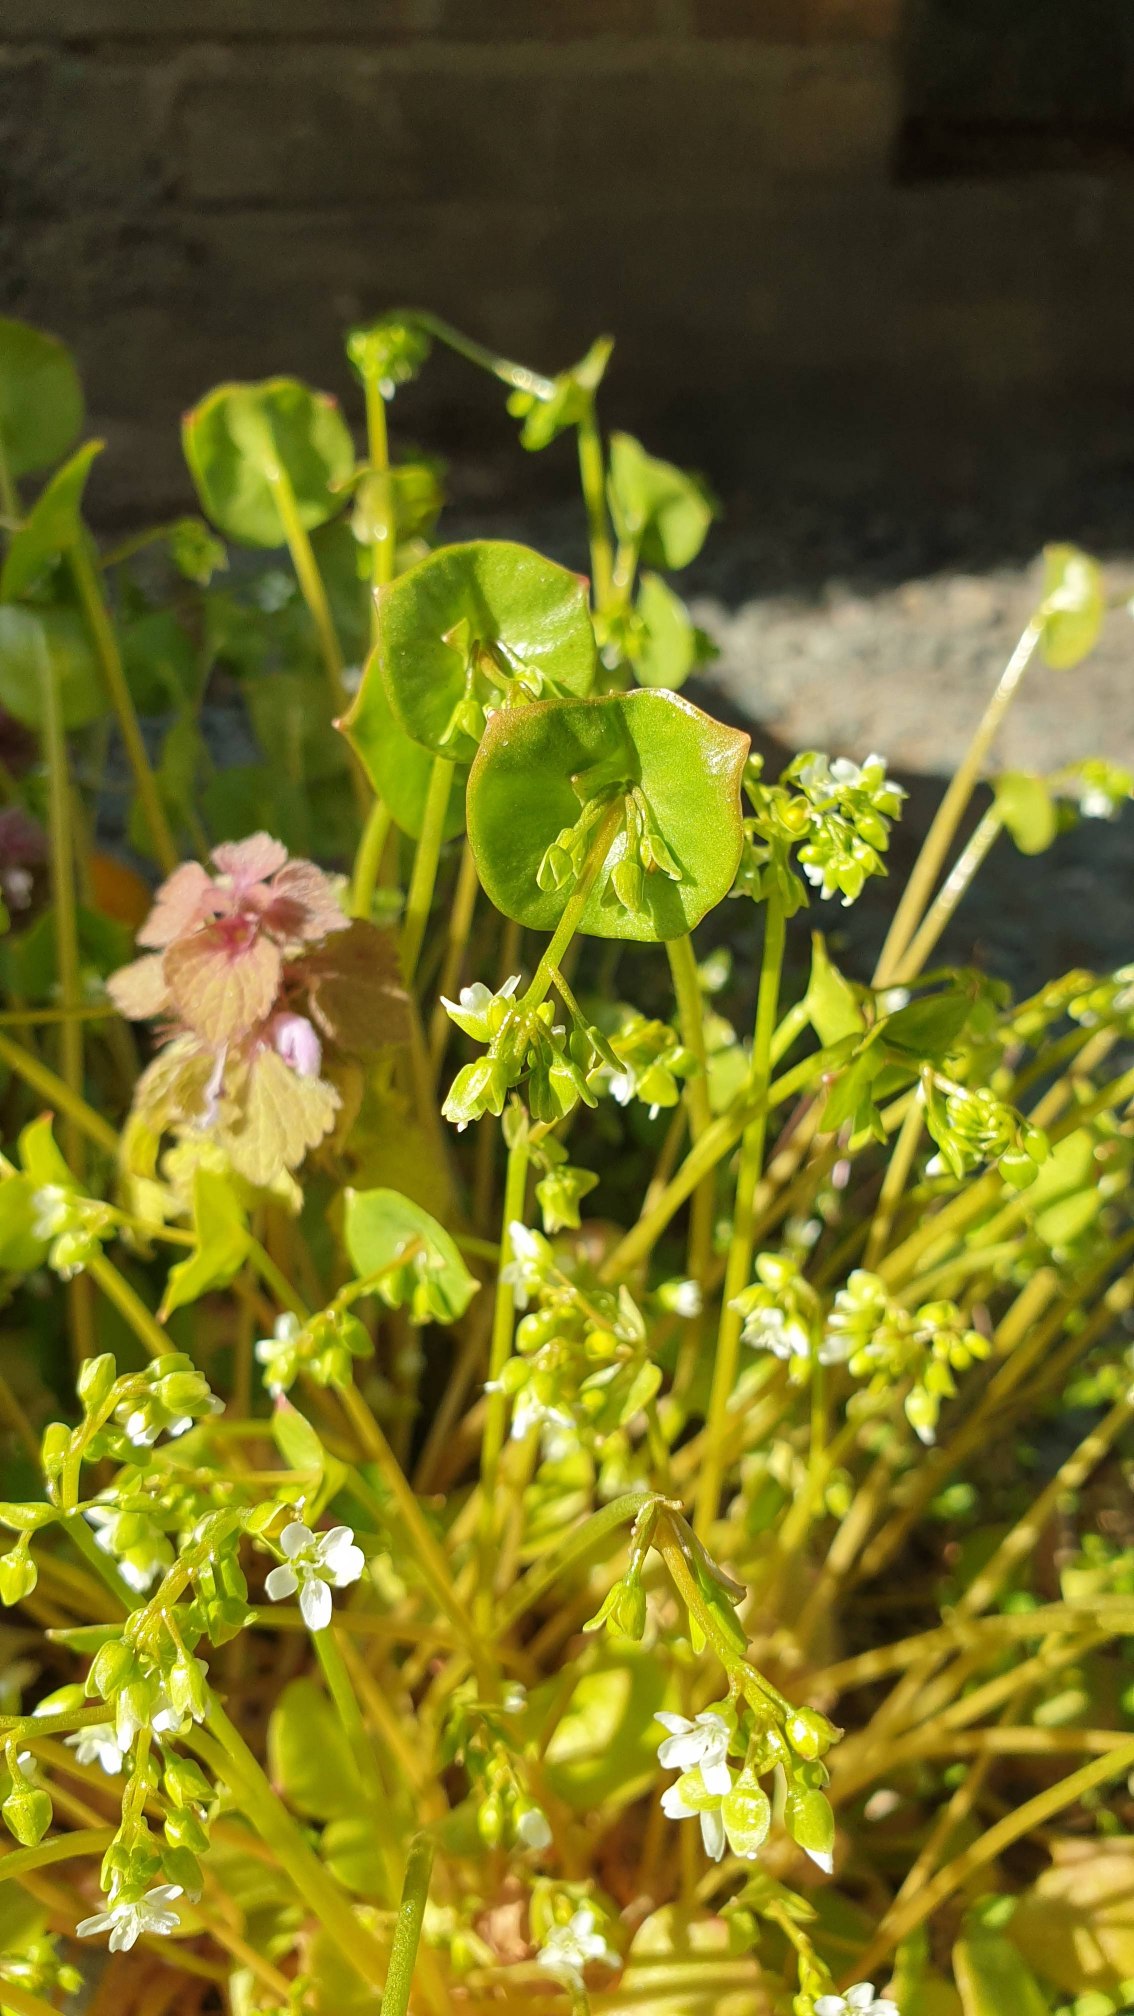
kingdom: Plantae
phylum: Tracheophyta
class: Magnoliopsida
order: Caryophyllales
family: Montiaceae
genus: Claytonia
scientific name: Claytonia perfoliata
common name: Spiselig vinterportulak
